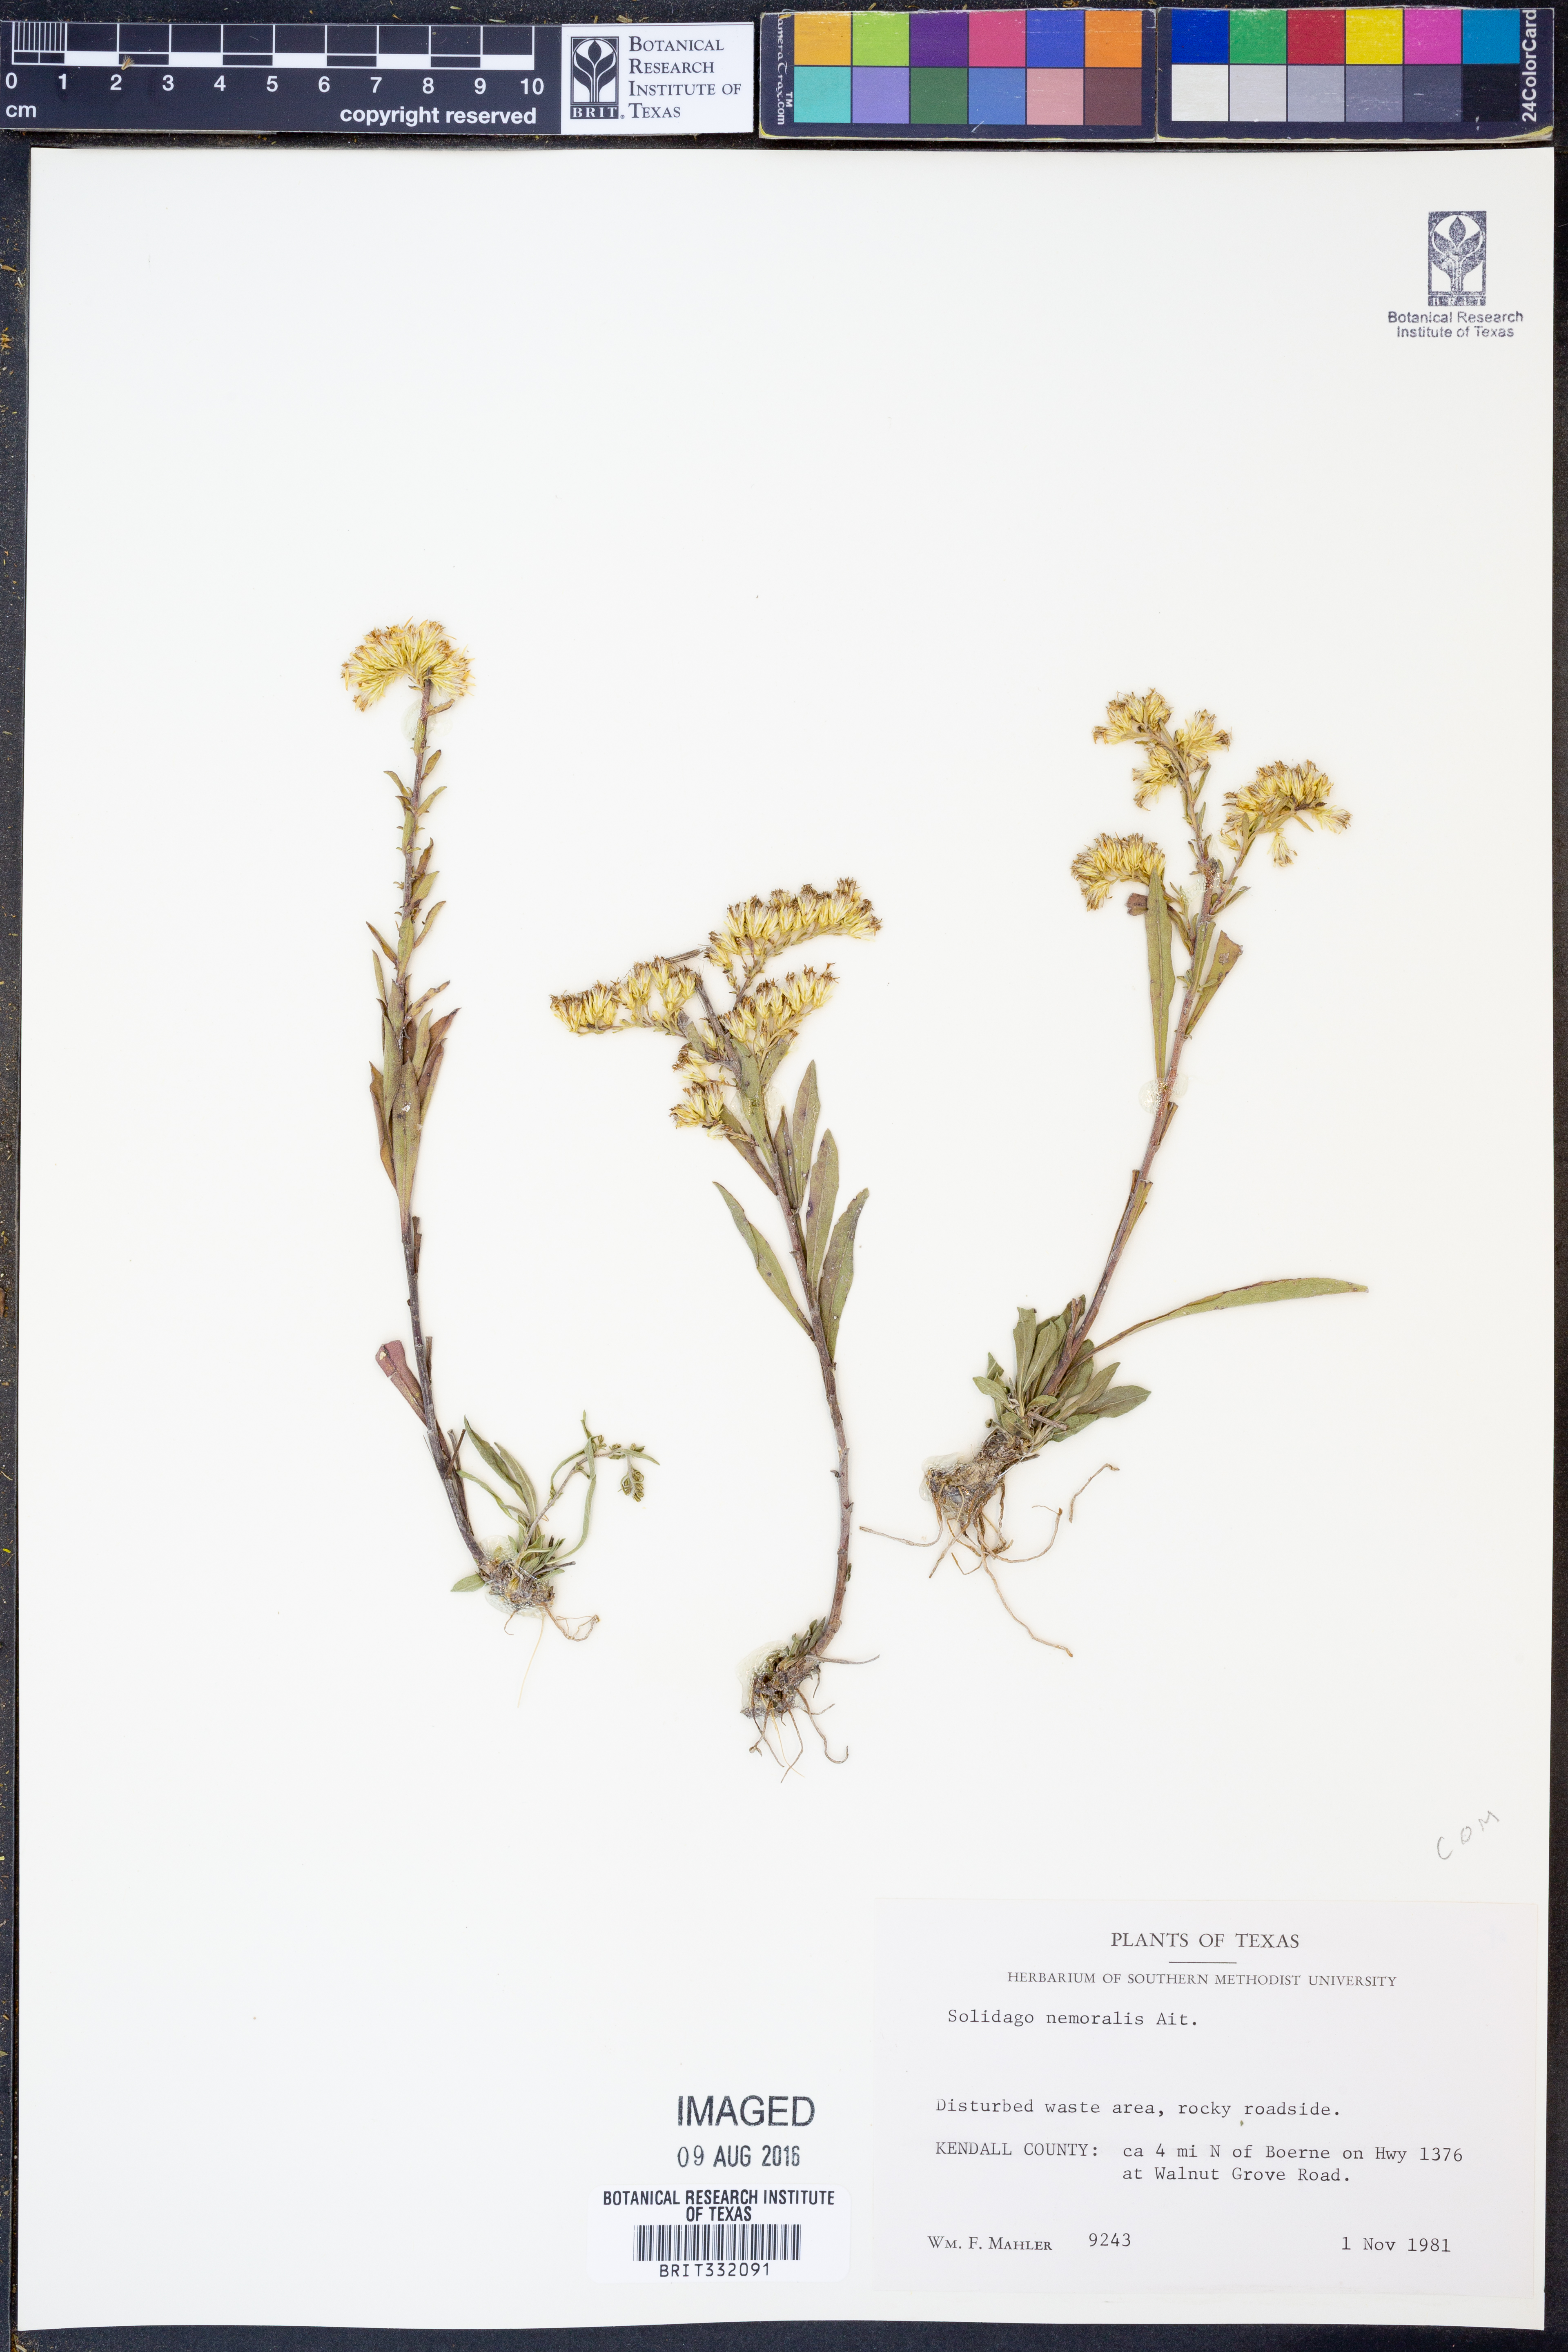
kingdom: Plantae
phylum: Tracheophyta
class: Magnoliopsida
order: Asterales
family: Asteraceae
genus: Solidago
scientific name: Solidago nemoralis
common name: Grey goldenrod
